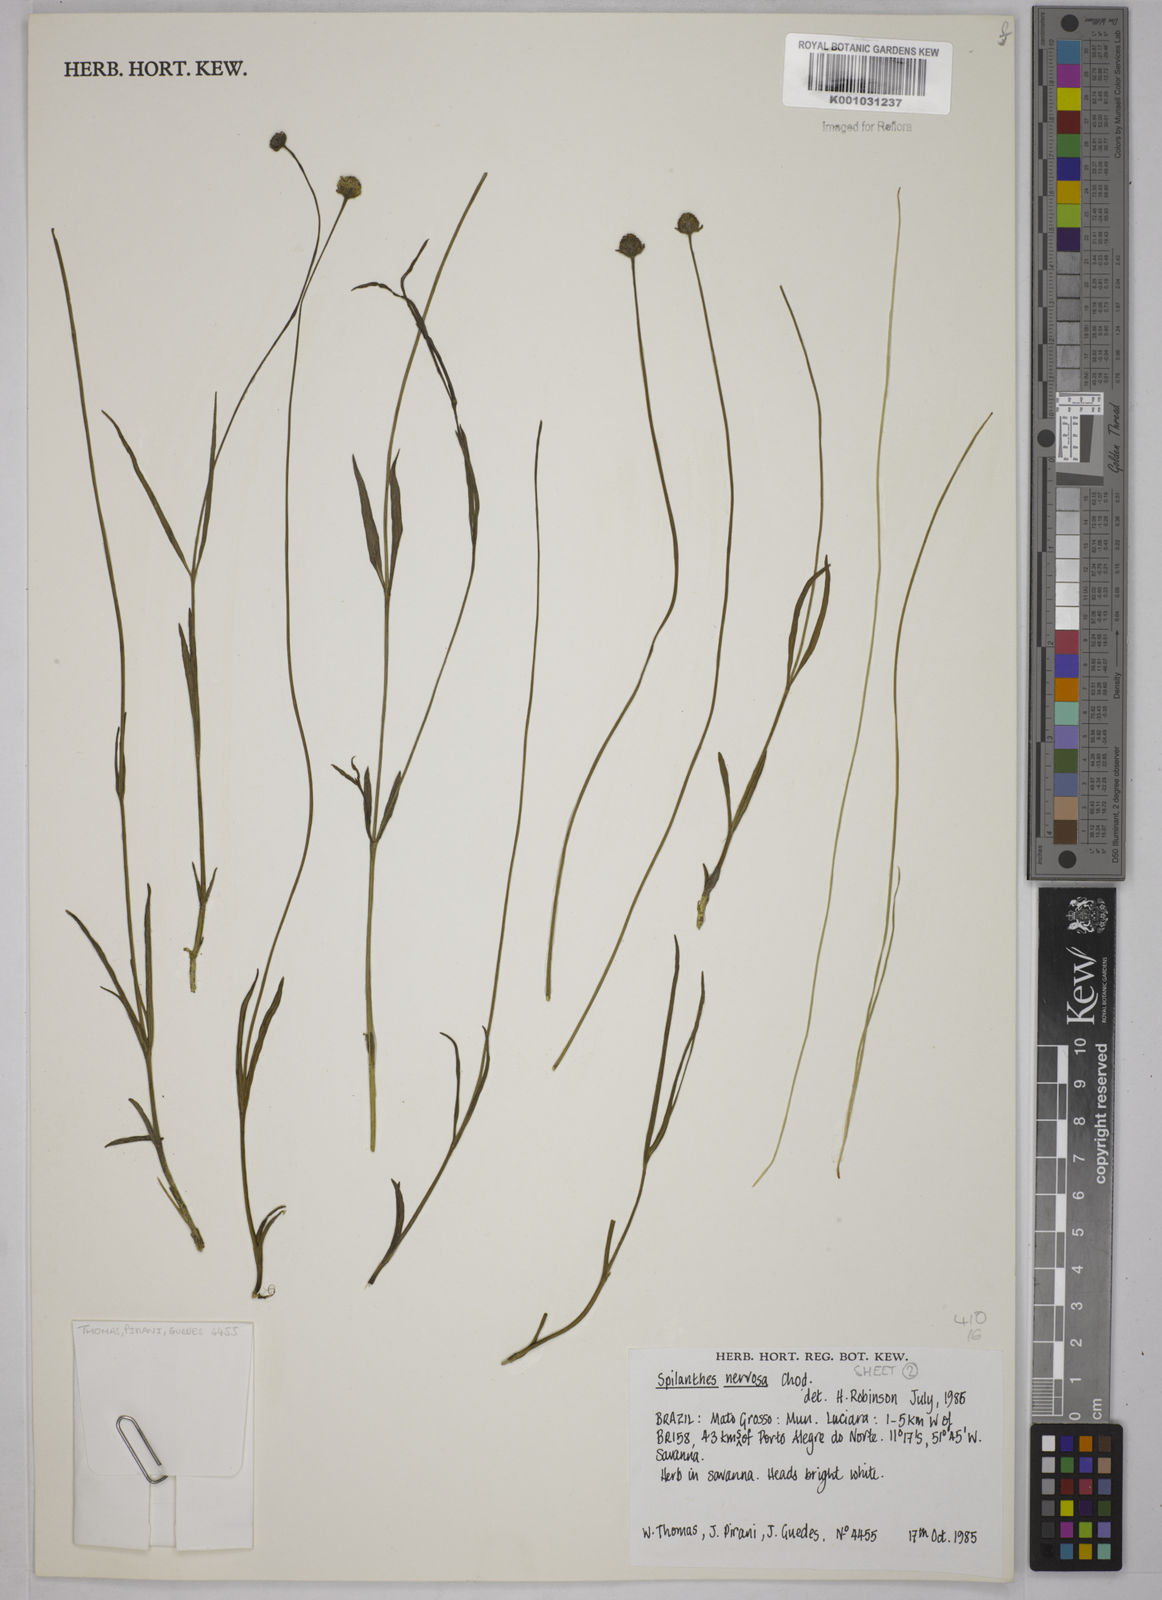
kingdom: Plantae
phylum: Tracheophyta
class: Magnoliopsida
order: Asterales
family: Asteraceae
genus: Spilanthes
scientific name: Spilanthes nervosa
